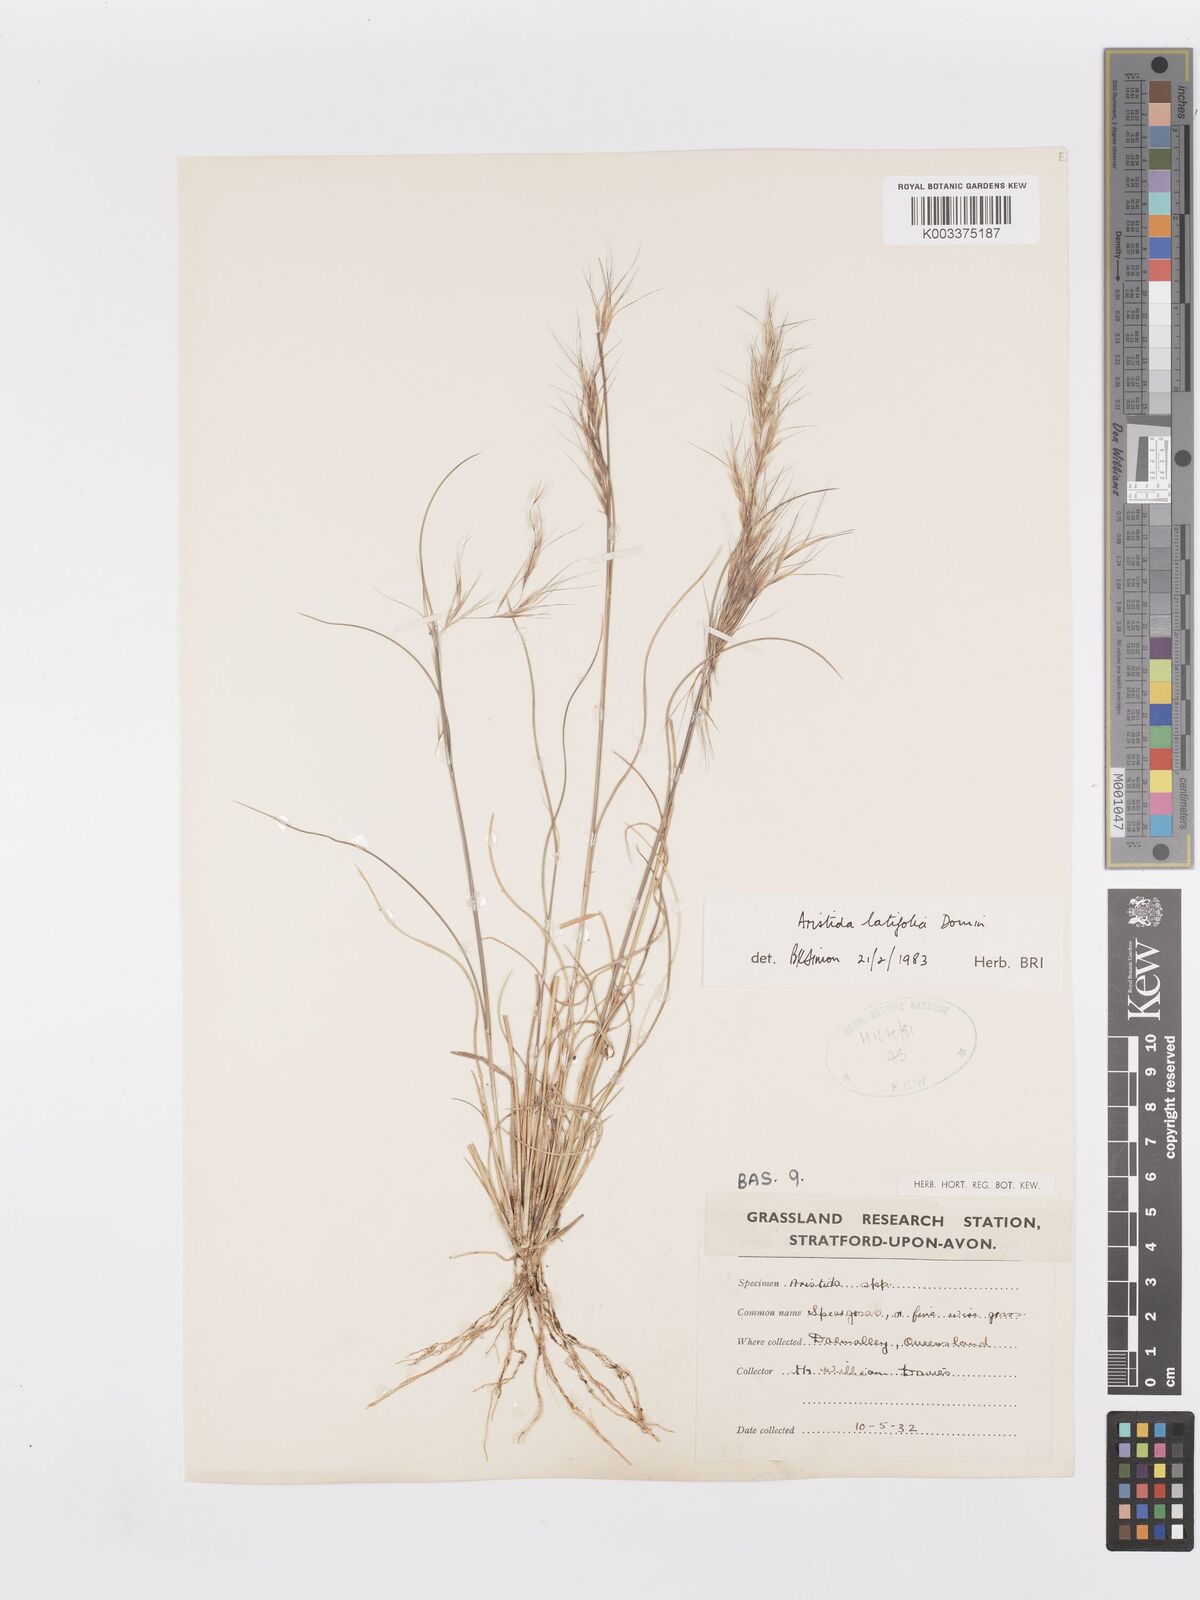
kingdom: Plantae
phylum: Tracheophyta
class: Liliopsida
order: Poales
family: Poaceae
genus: Aristida
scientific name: Aristida latifolia
